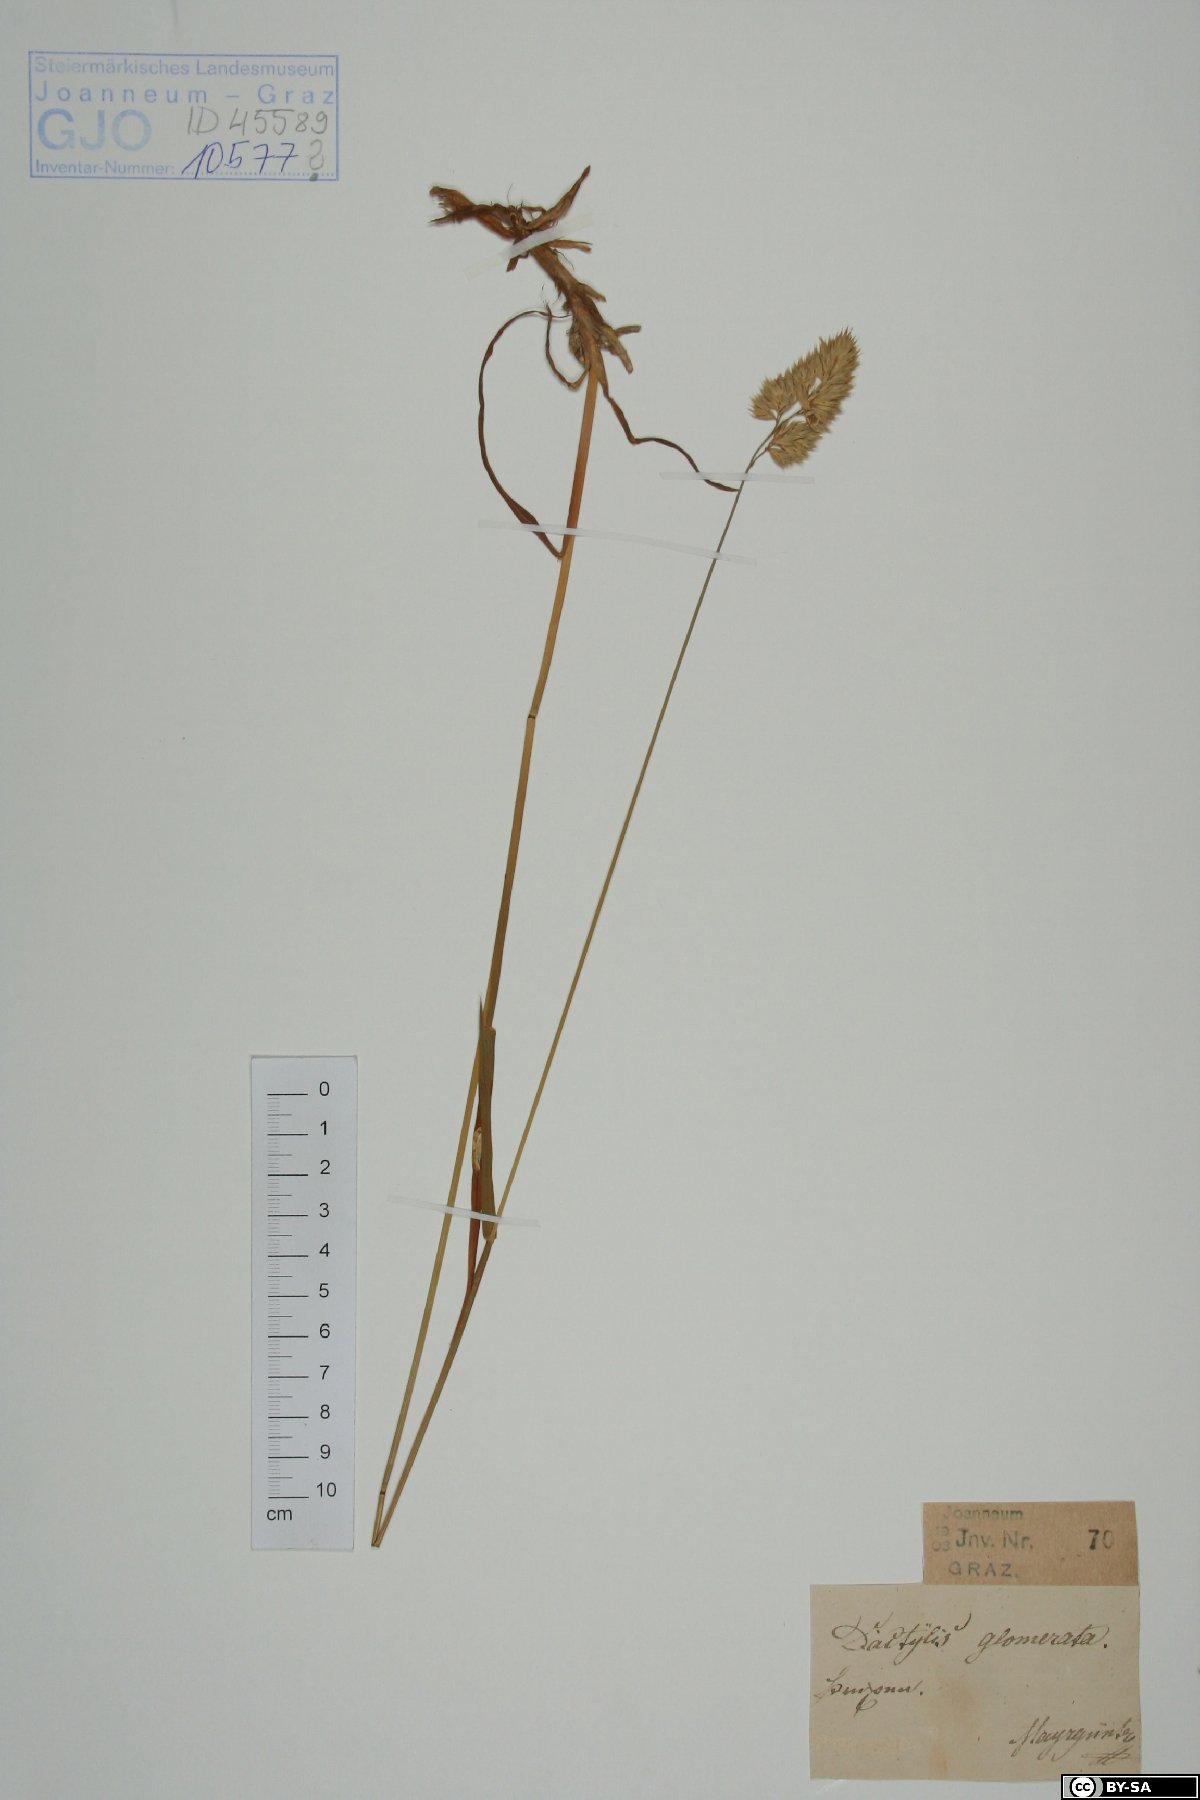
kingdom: Plantae
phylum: Tracheophyta
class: Liliopsida
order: Poales
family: Poaceae
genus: Dactylis
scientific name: Dactylis glomerata
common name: Orchardgrass
